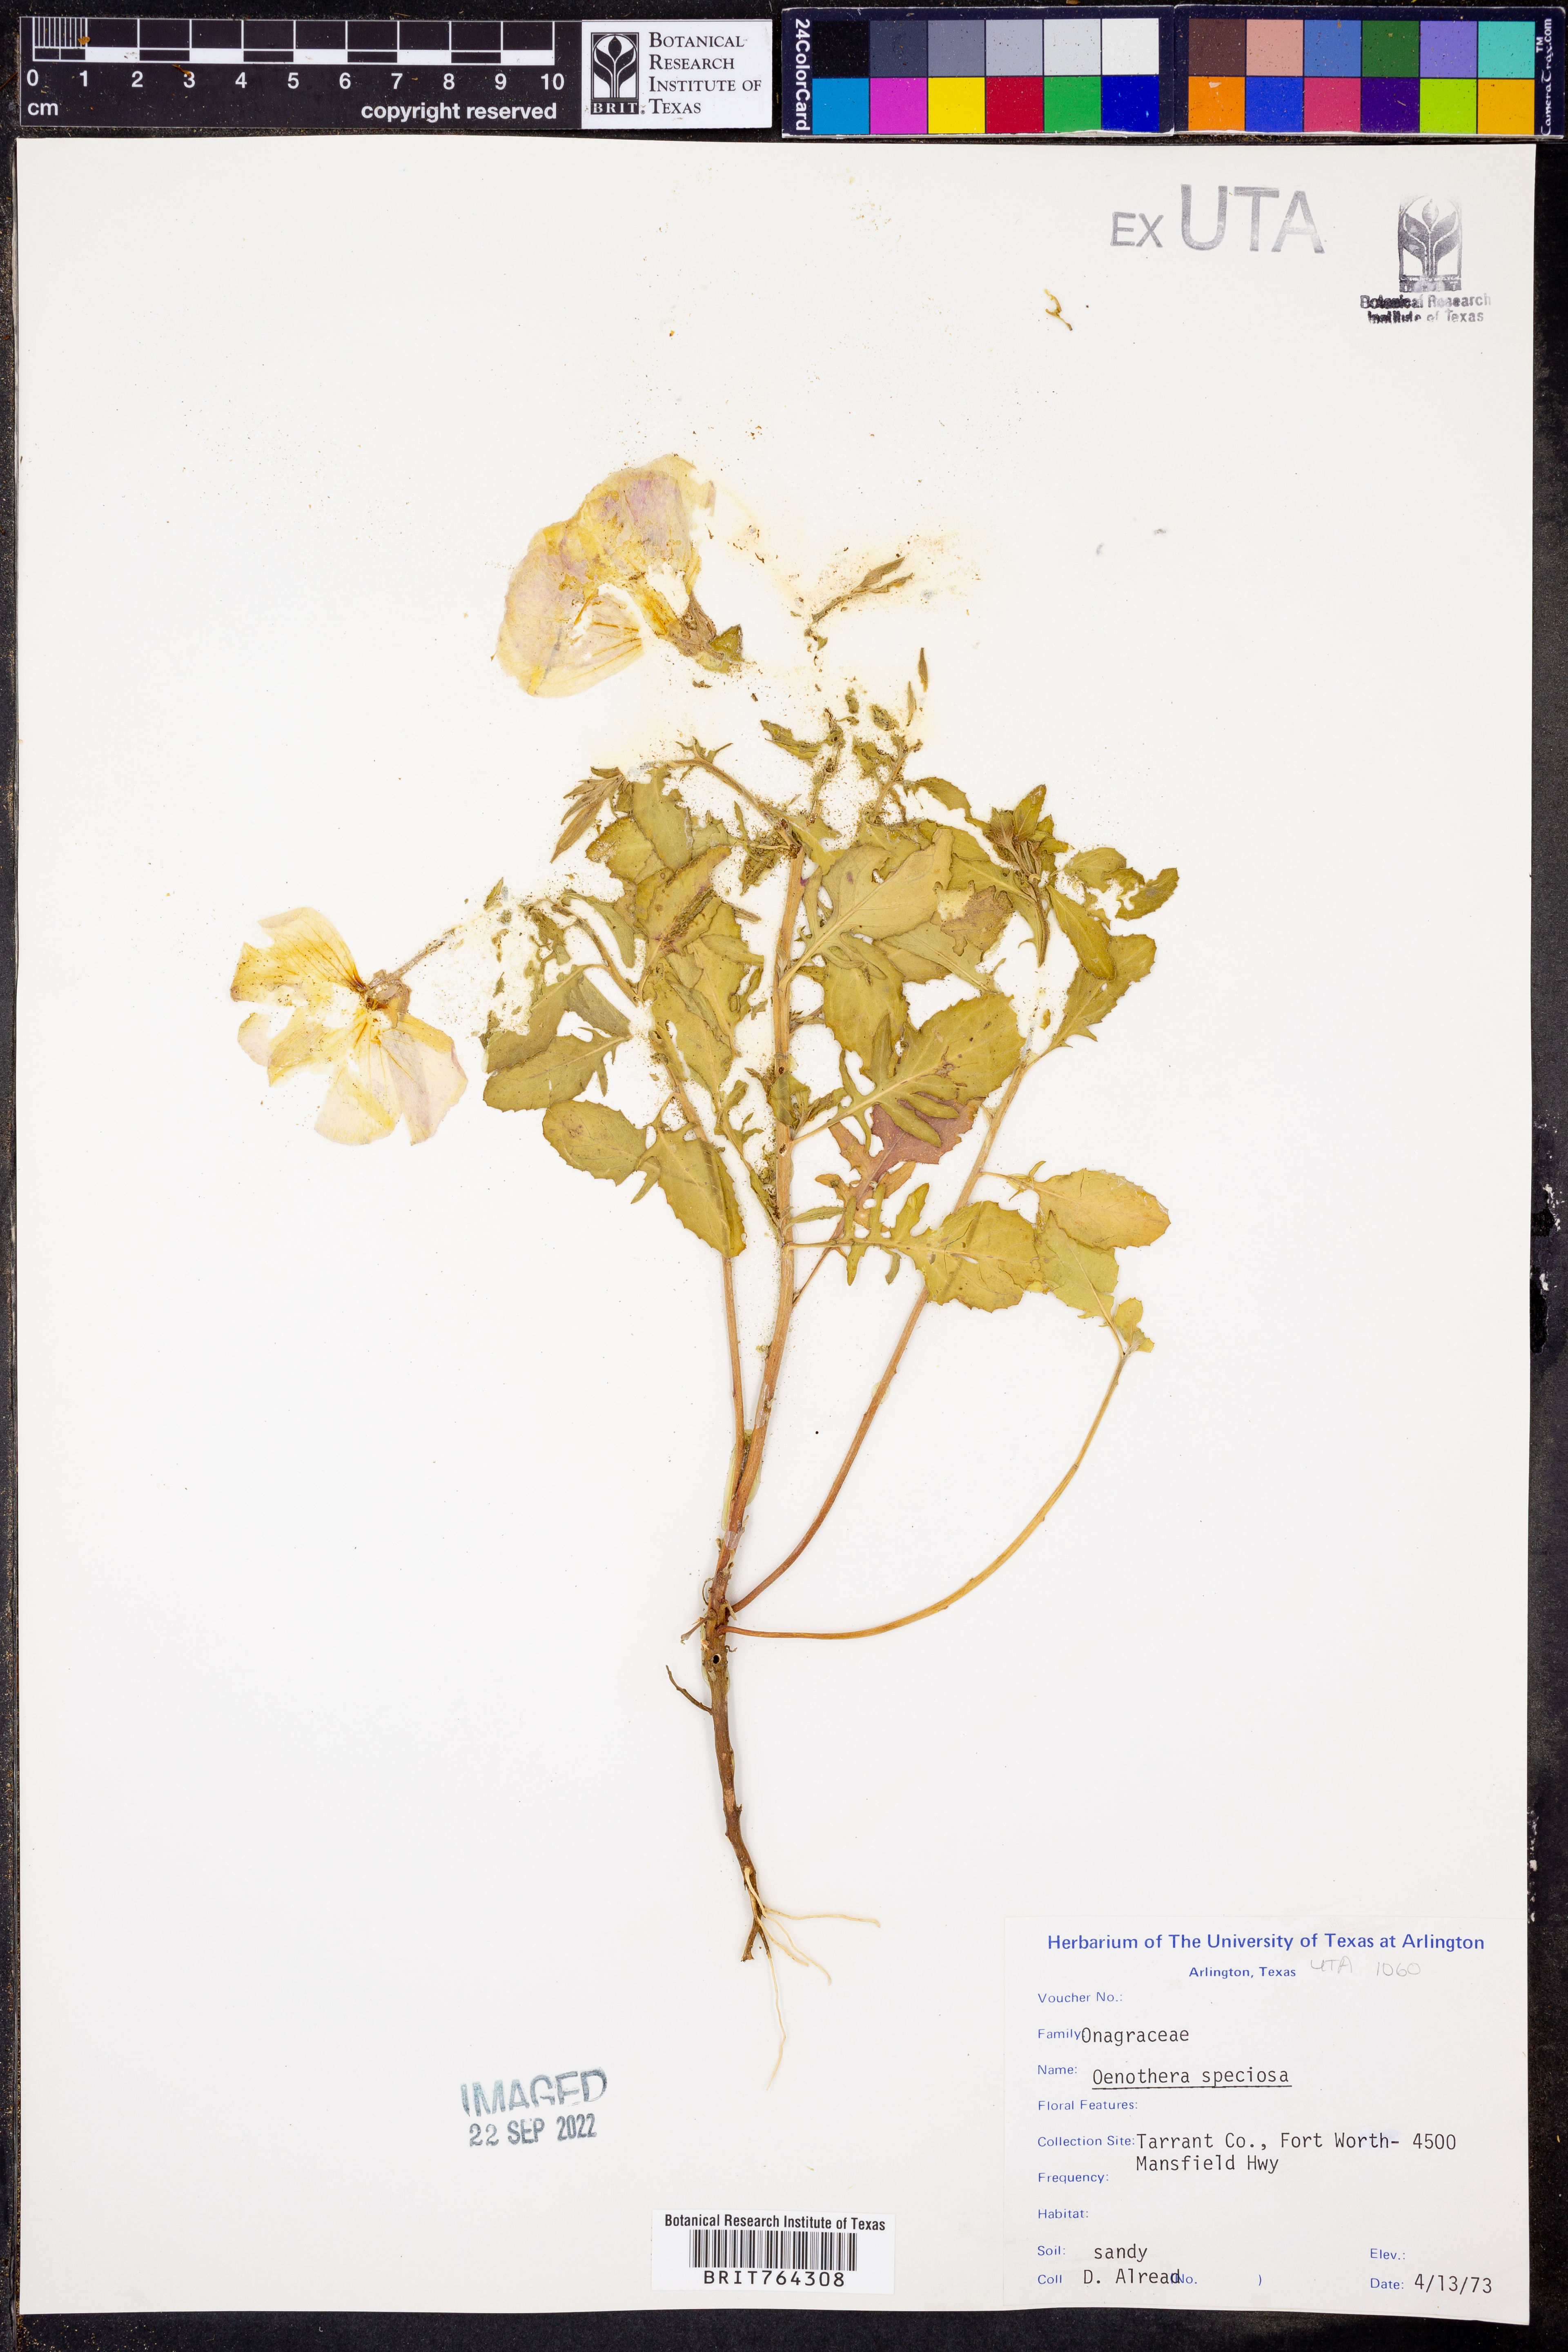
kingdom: Plantae
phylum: Tracheophyta
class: Magnoliopsida
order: Myrtales
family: Onagraceae
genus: Oenothera
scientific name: Oenothera speciosa
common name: White evening-primrose
